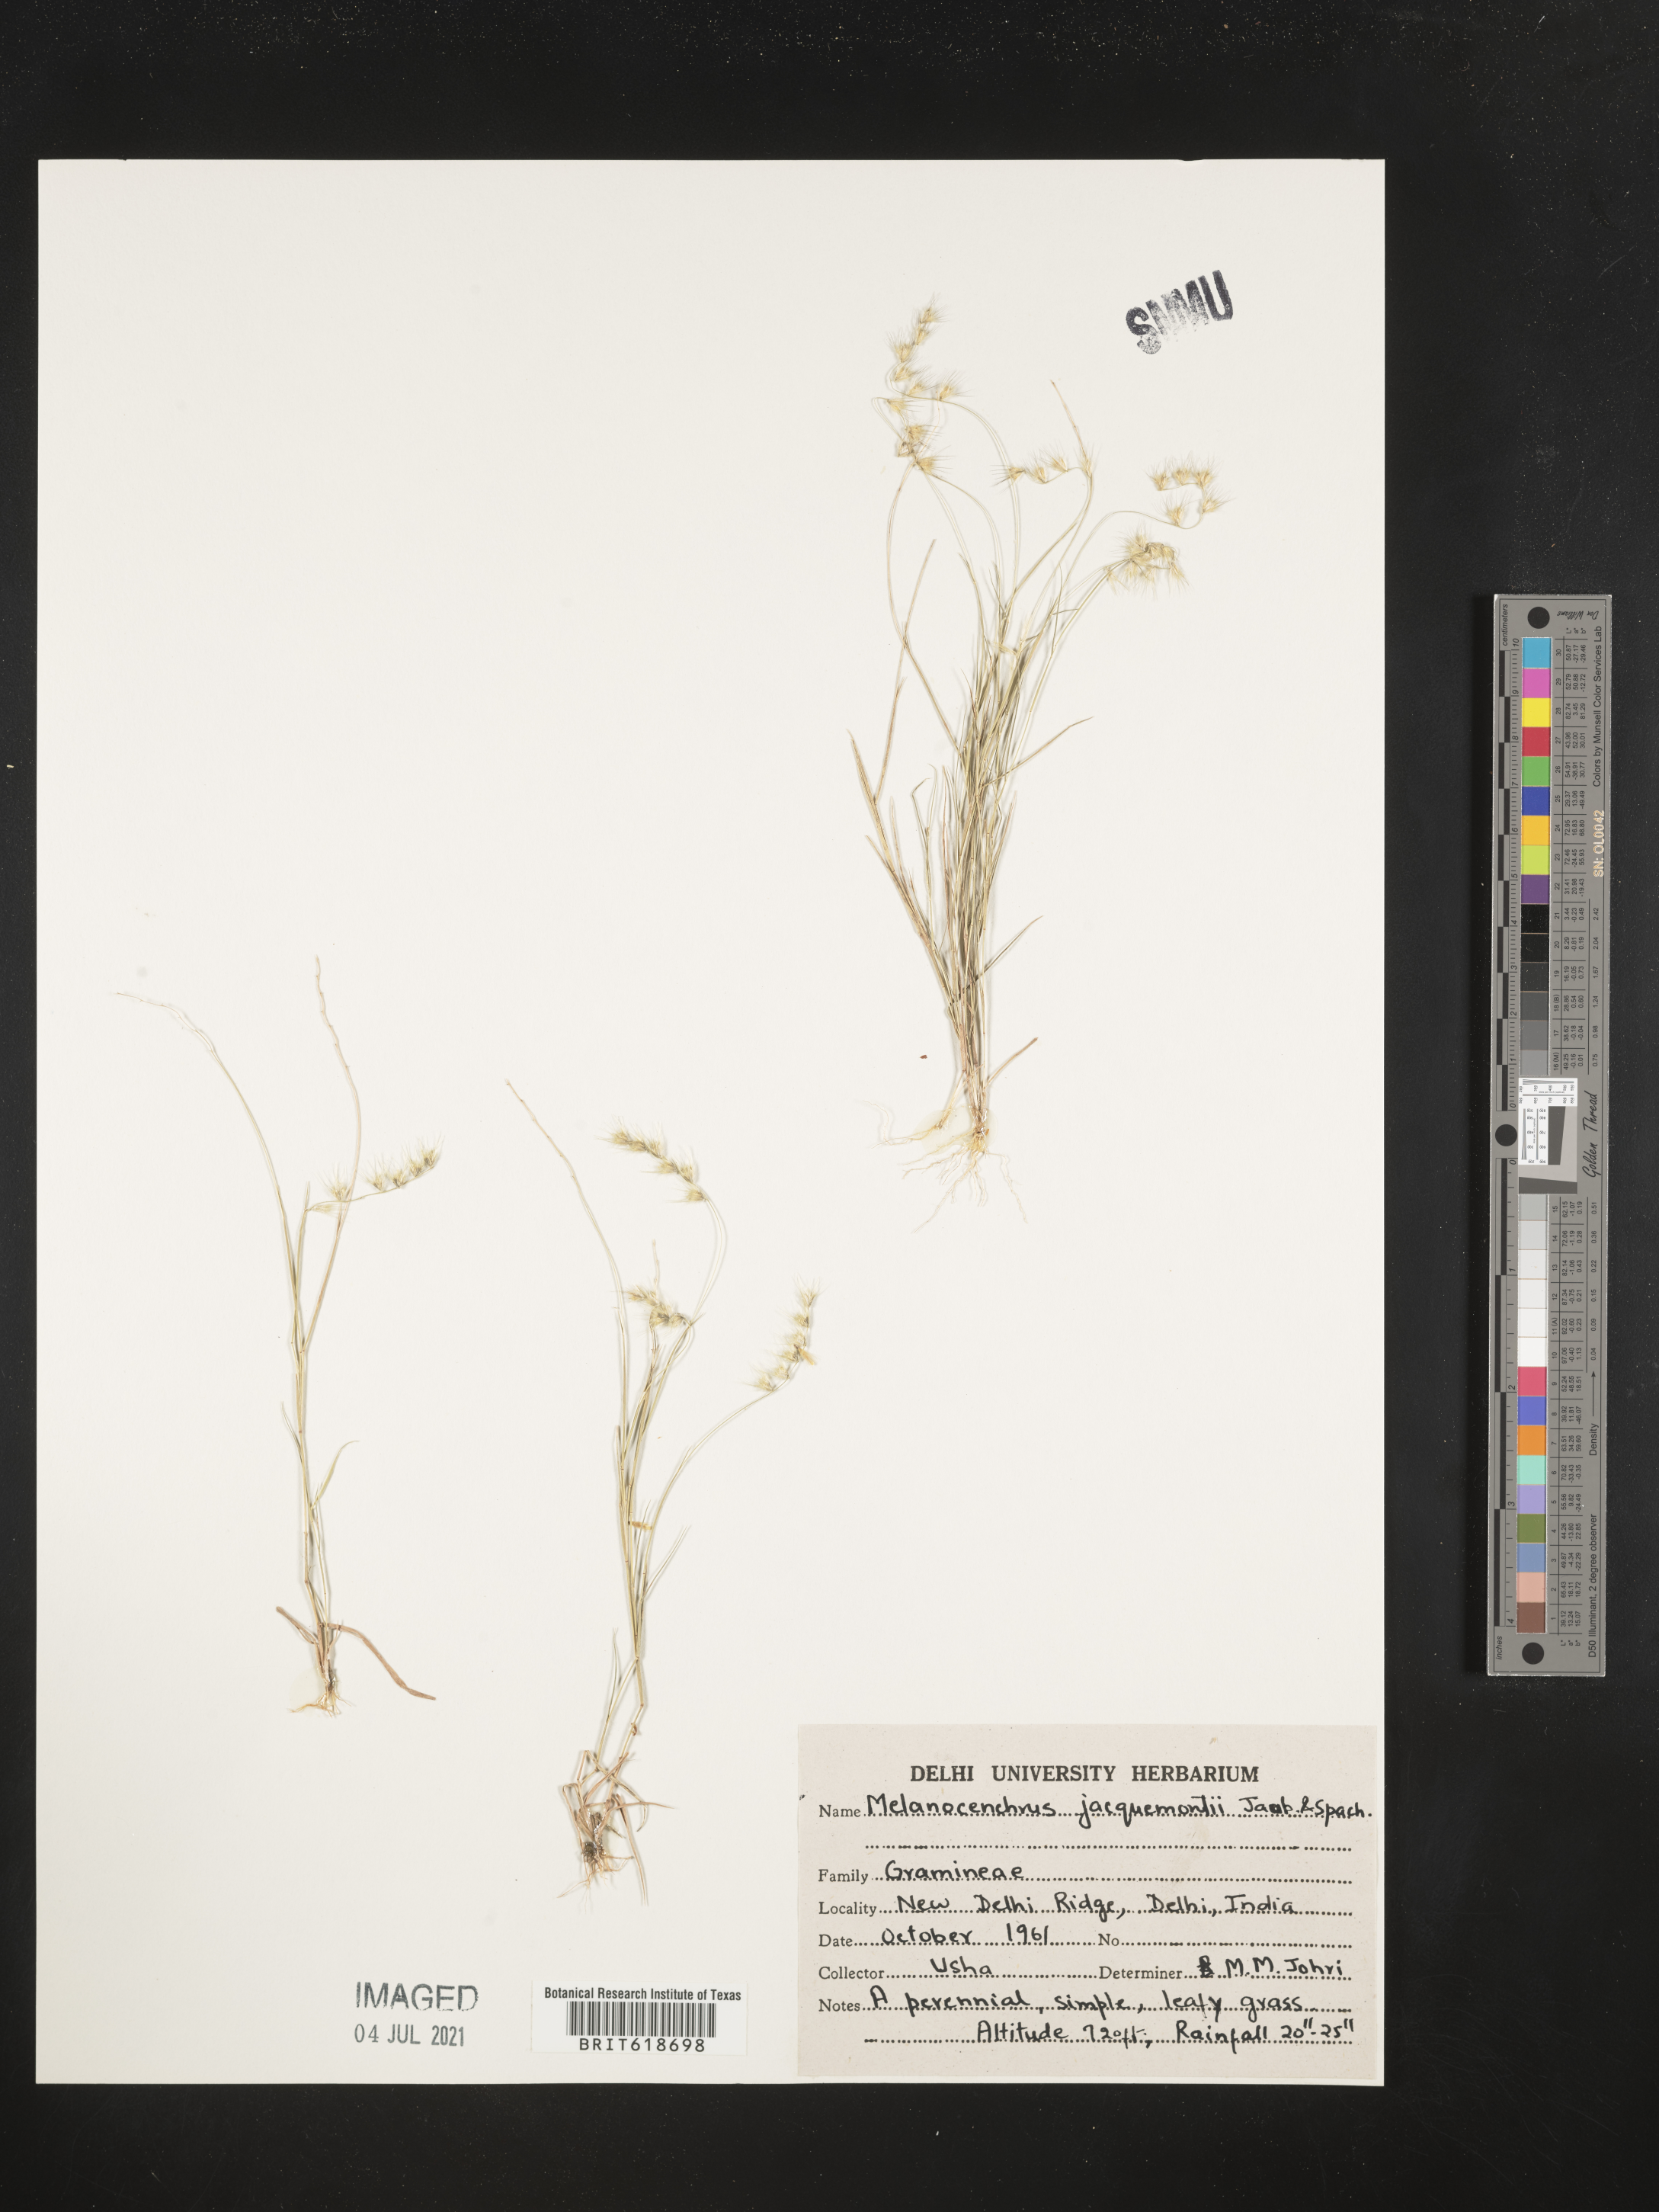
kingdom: Plantae
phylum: Tracheophyta
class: Liliopsida
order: Poales
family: Poaceae
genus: Melanocenchris
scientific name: Melanocenchris jacquemontii
